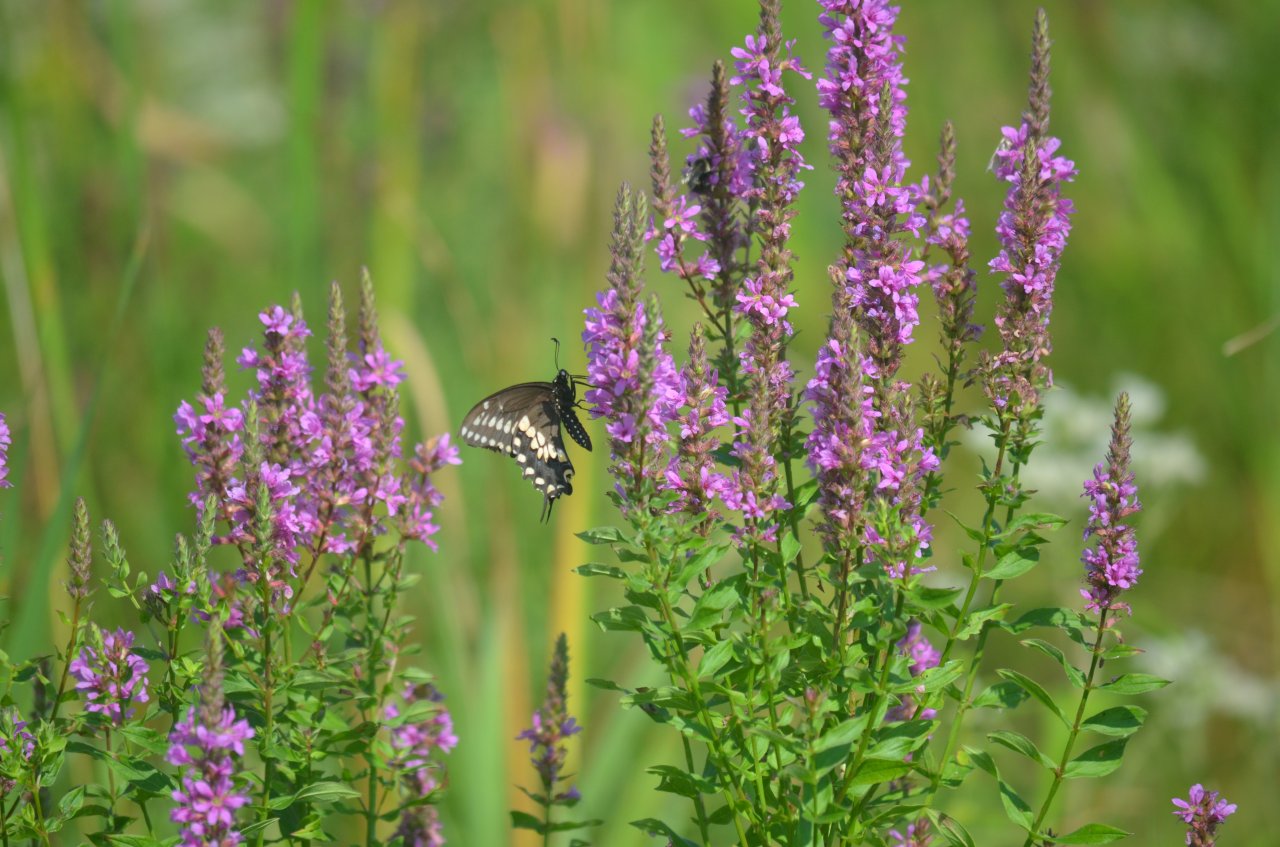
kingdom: Animalia
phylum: Arthropoda
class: Insecta
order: Lepidoptera
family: Papilionidae
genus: Papilio
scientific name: Papilio polyxenes
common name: Black Swallowtail
